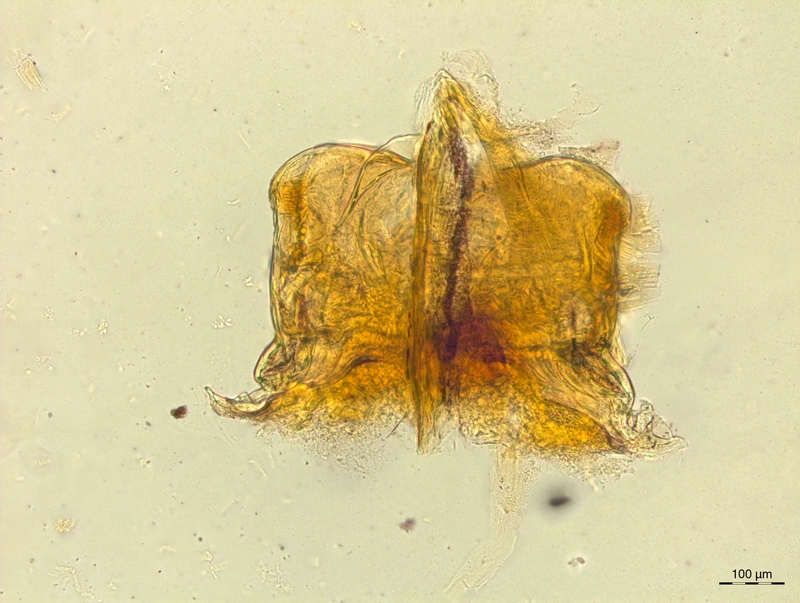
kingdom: Animalia
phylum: Arthropoda
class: Diplopoda
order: Chordeumatida
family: Craspedosomatidae
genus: Craspedosoma
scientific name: Craspedosoma taurinorum
